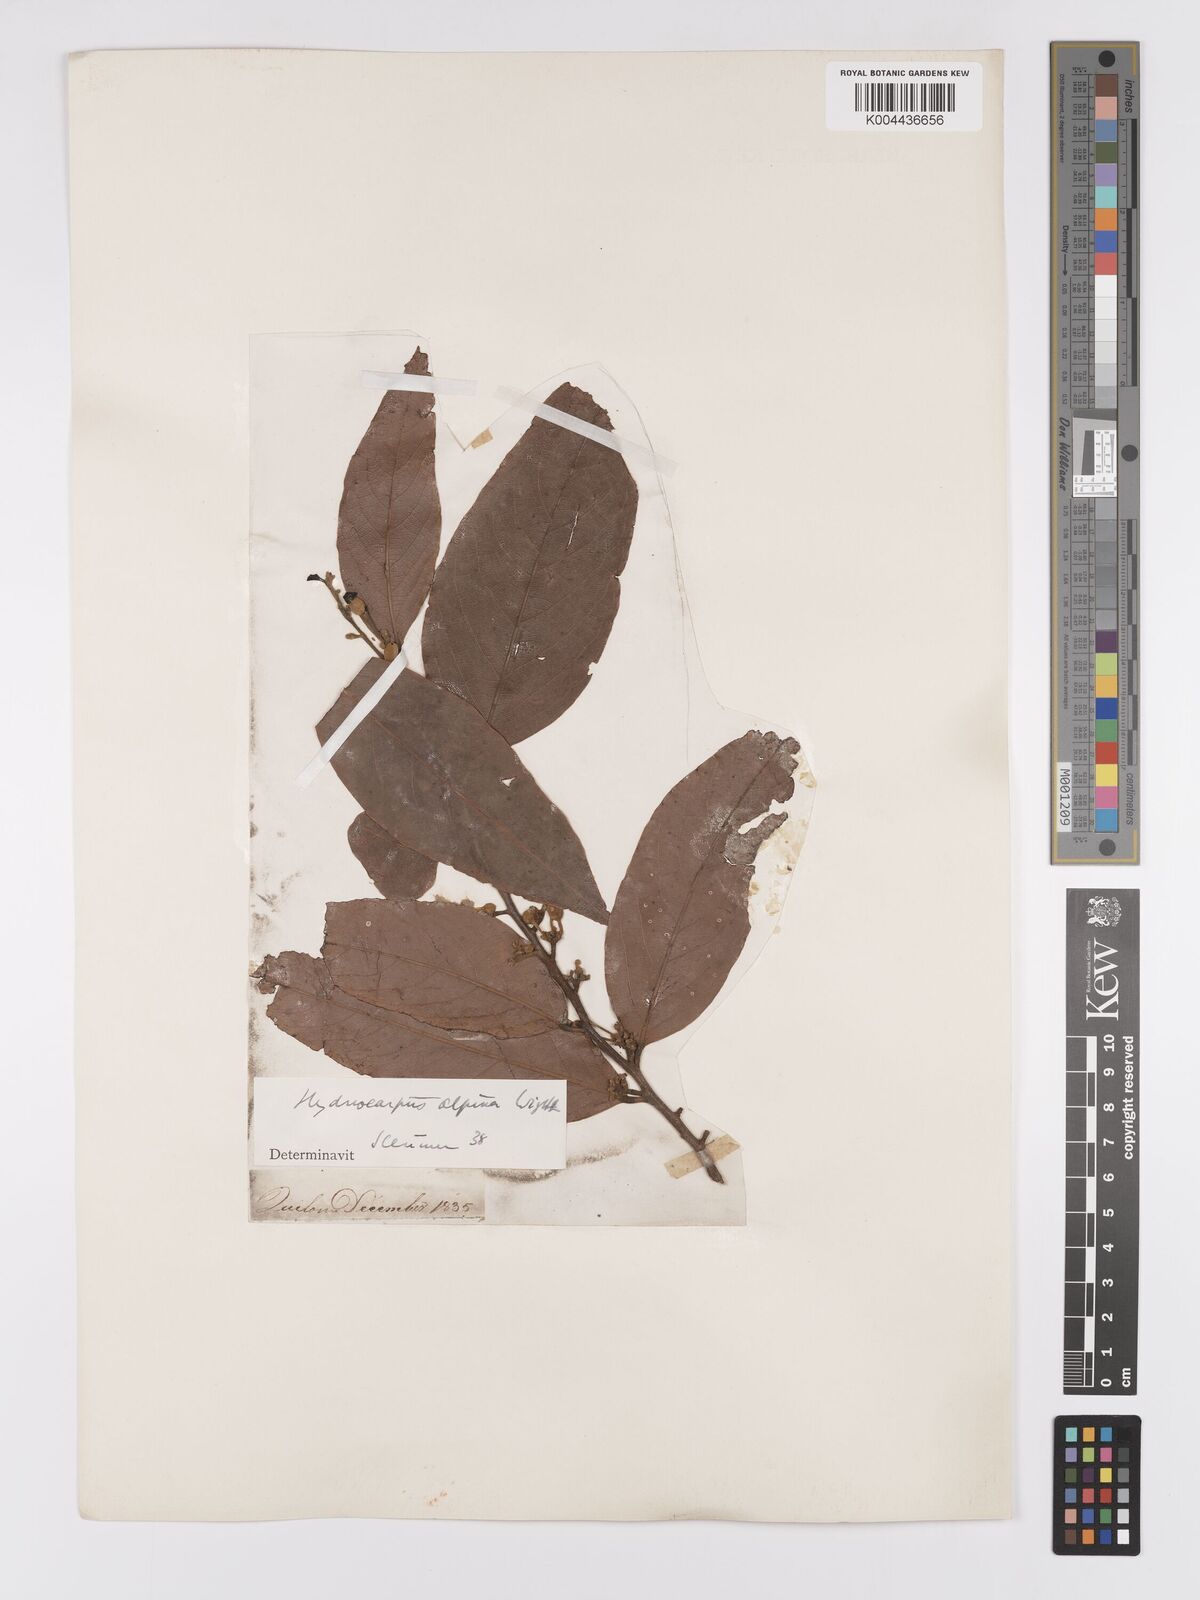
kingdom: Plantae
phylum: Tracheophyta
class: Magnoliopsida
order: Malpighiales
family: Achariaceae
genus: Hydnocarpus
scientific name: Hydnocarpus alpinus
